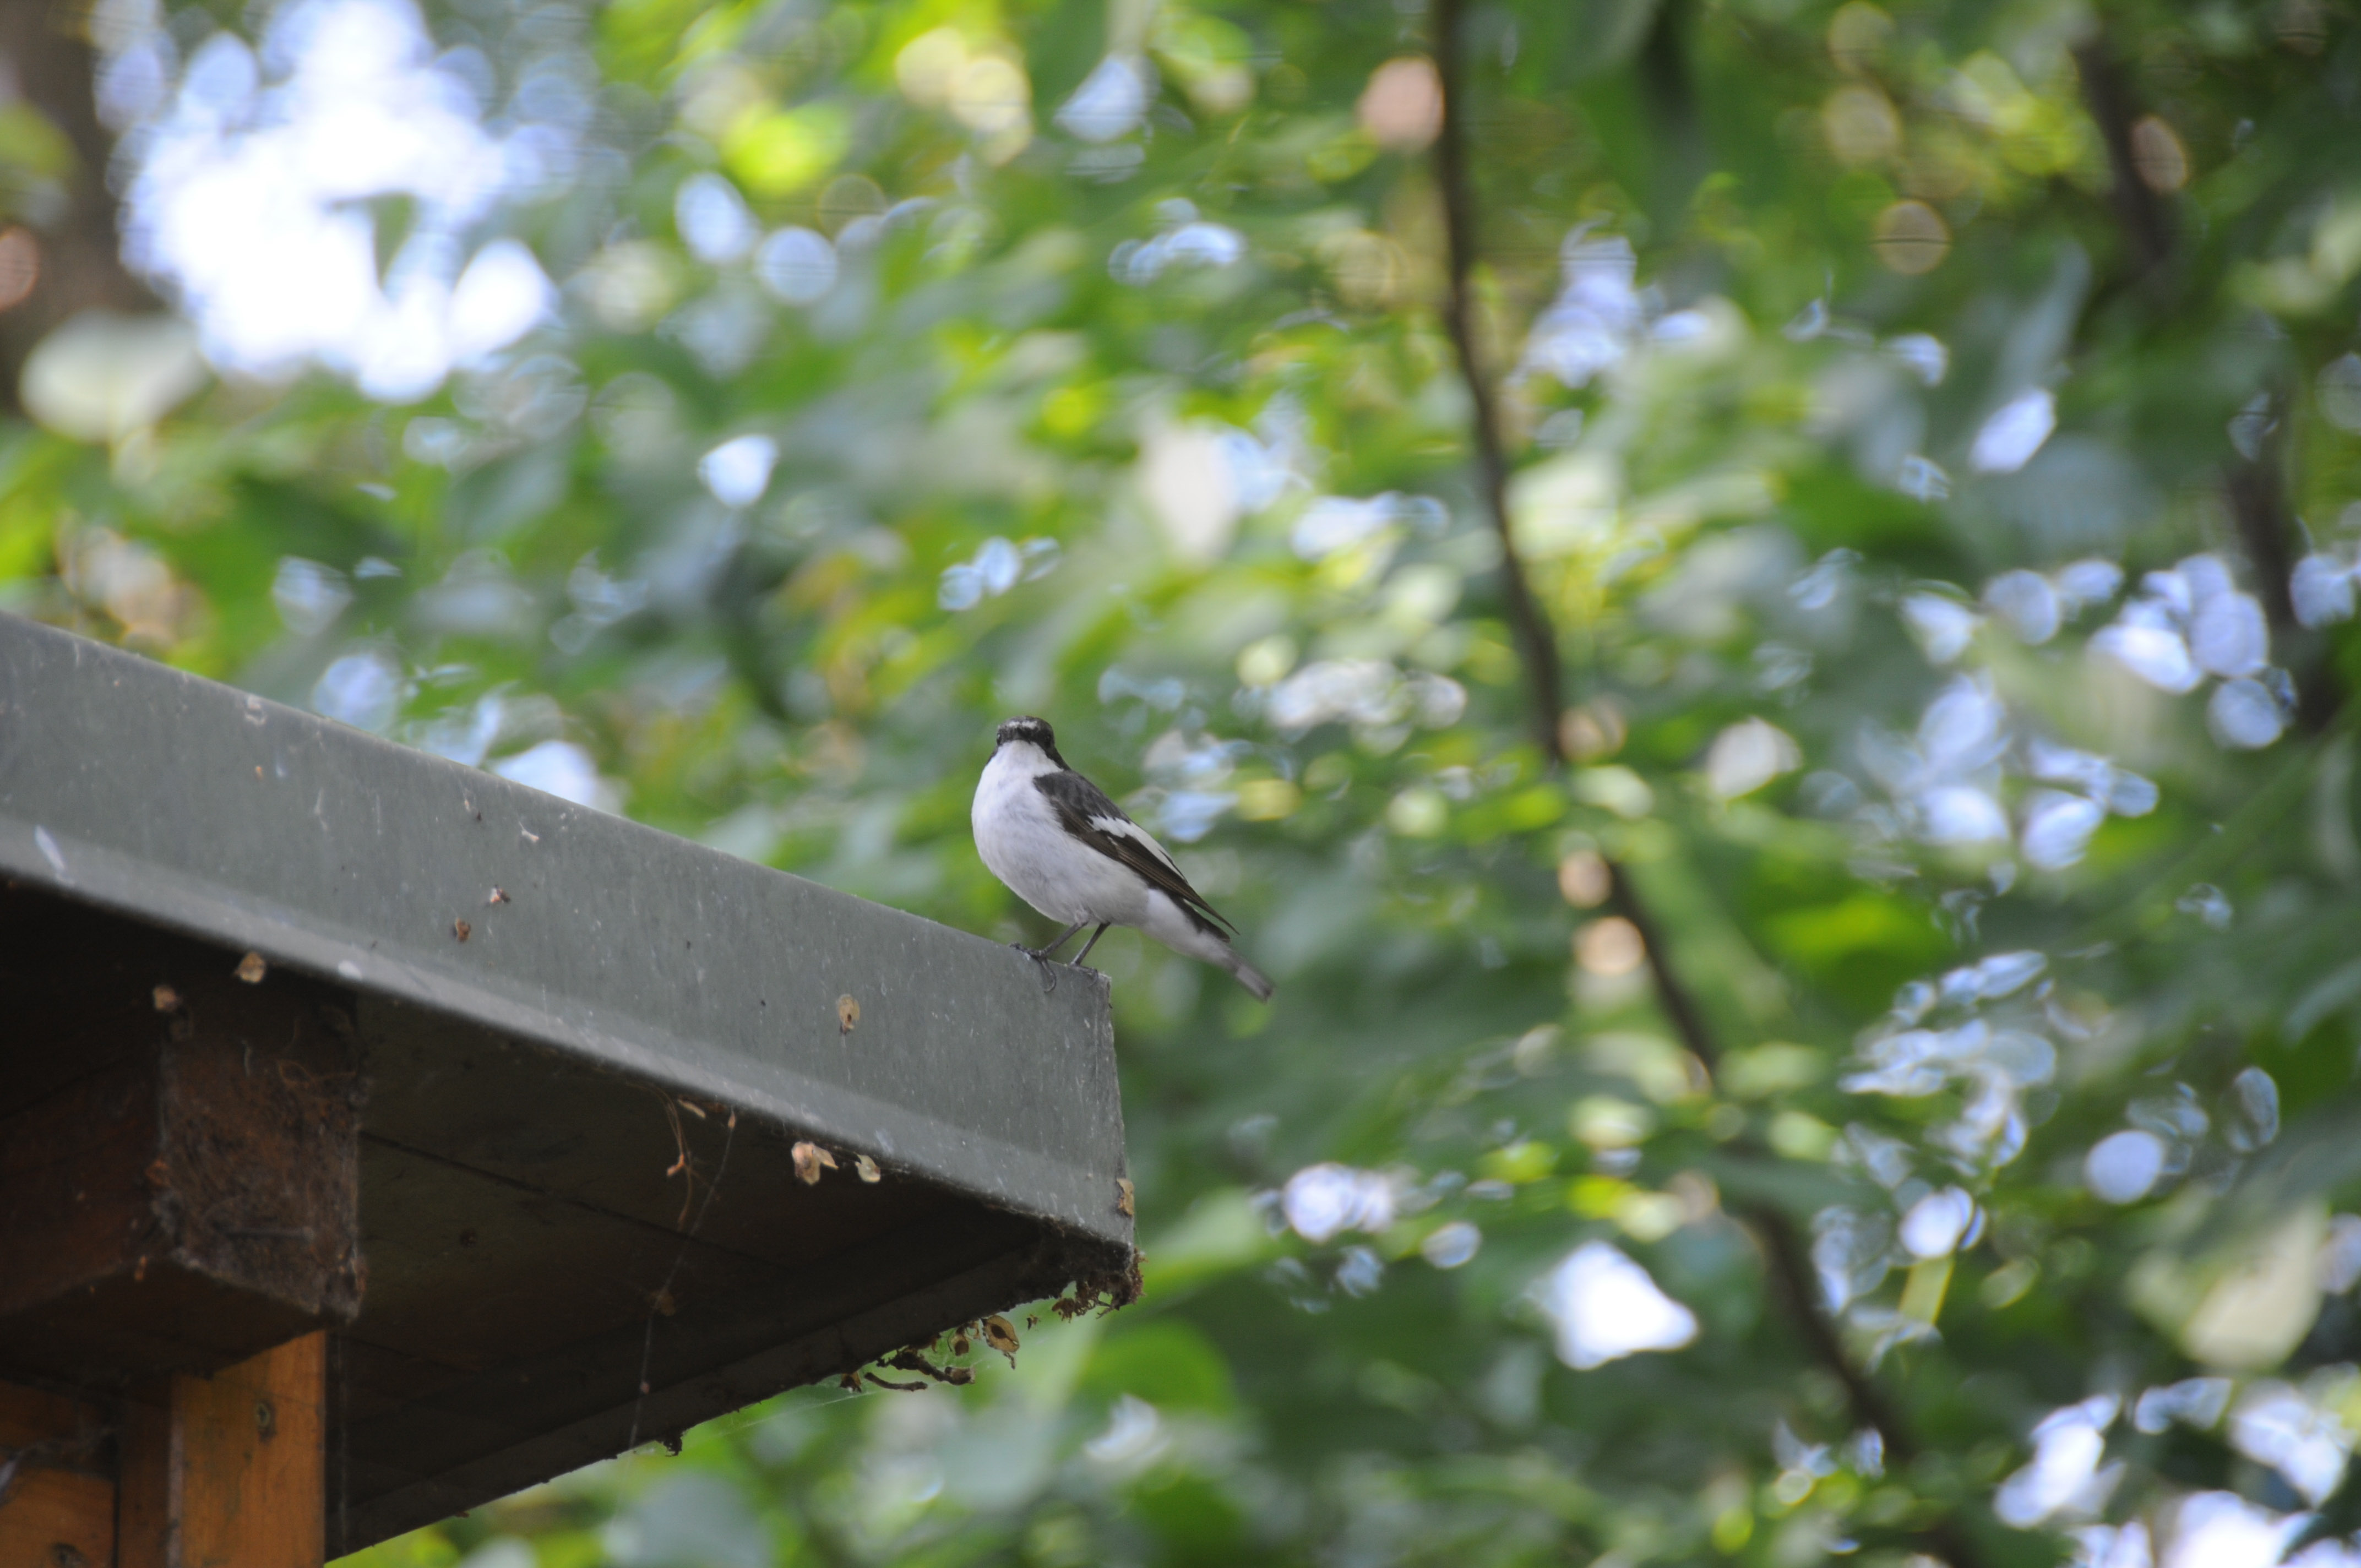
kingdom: Animalia
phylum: Chordata
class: Aves
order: Passeriformes
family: Muscicapidae
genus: Ficedula
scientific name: Ficedula hypoleuca
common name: European pied flycatcher
